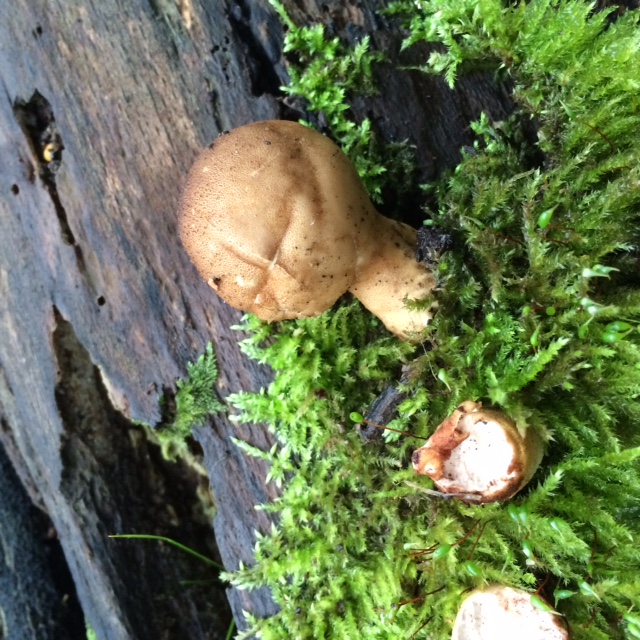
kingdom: Fungi
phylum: Basidiomycota
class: Agaricomycetes
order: Agaricales
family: Lycoperdaceae
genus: Apioperdon
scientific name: Apioperdon pyriforme
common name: pære-støvbold
